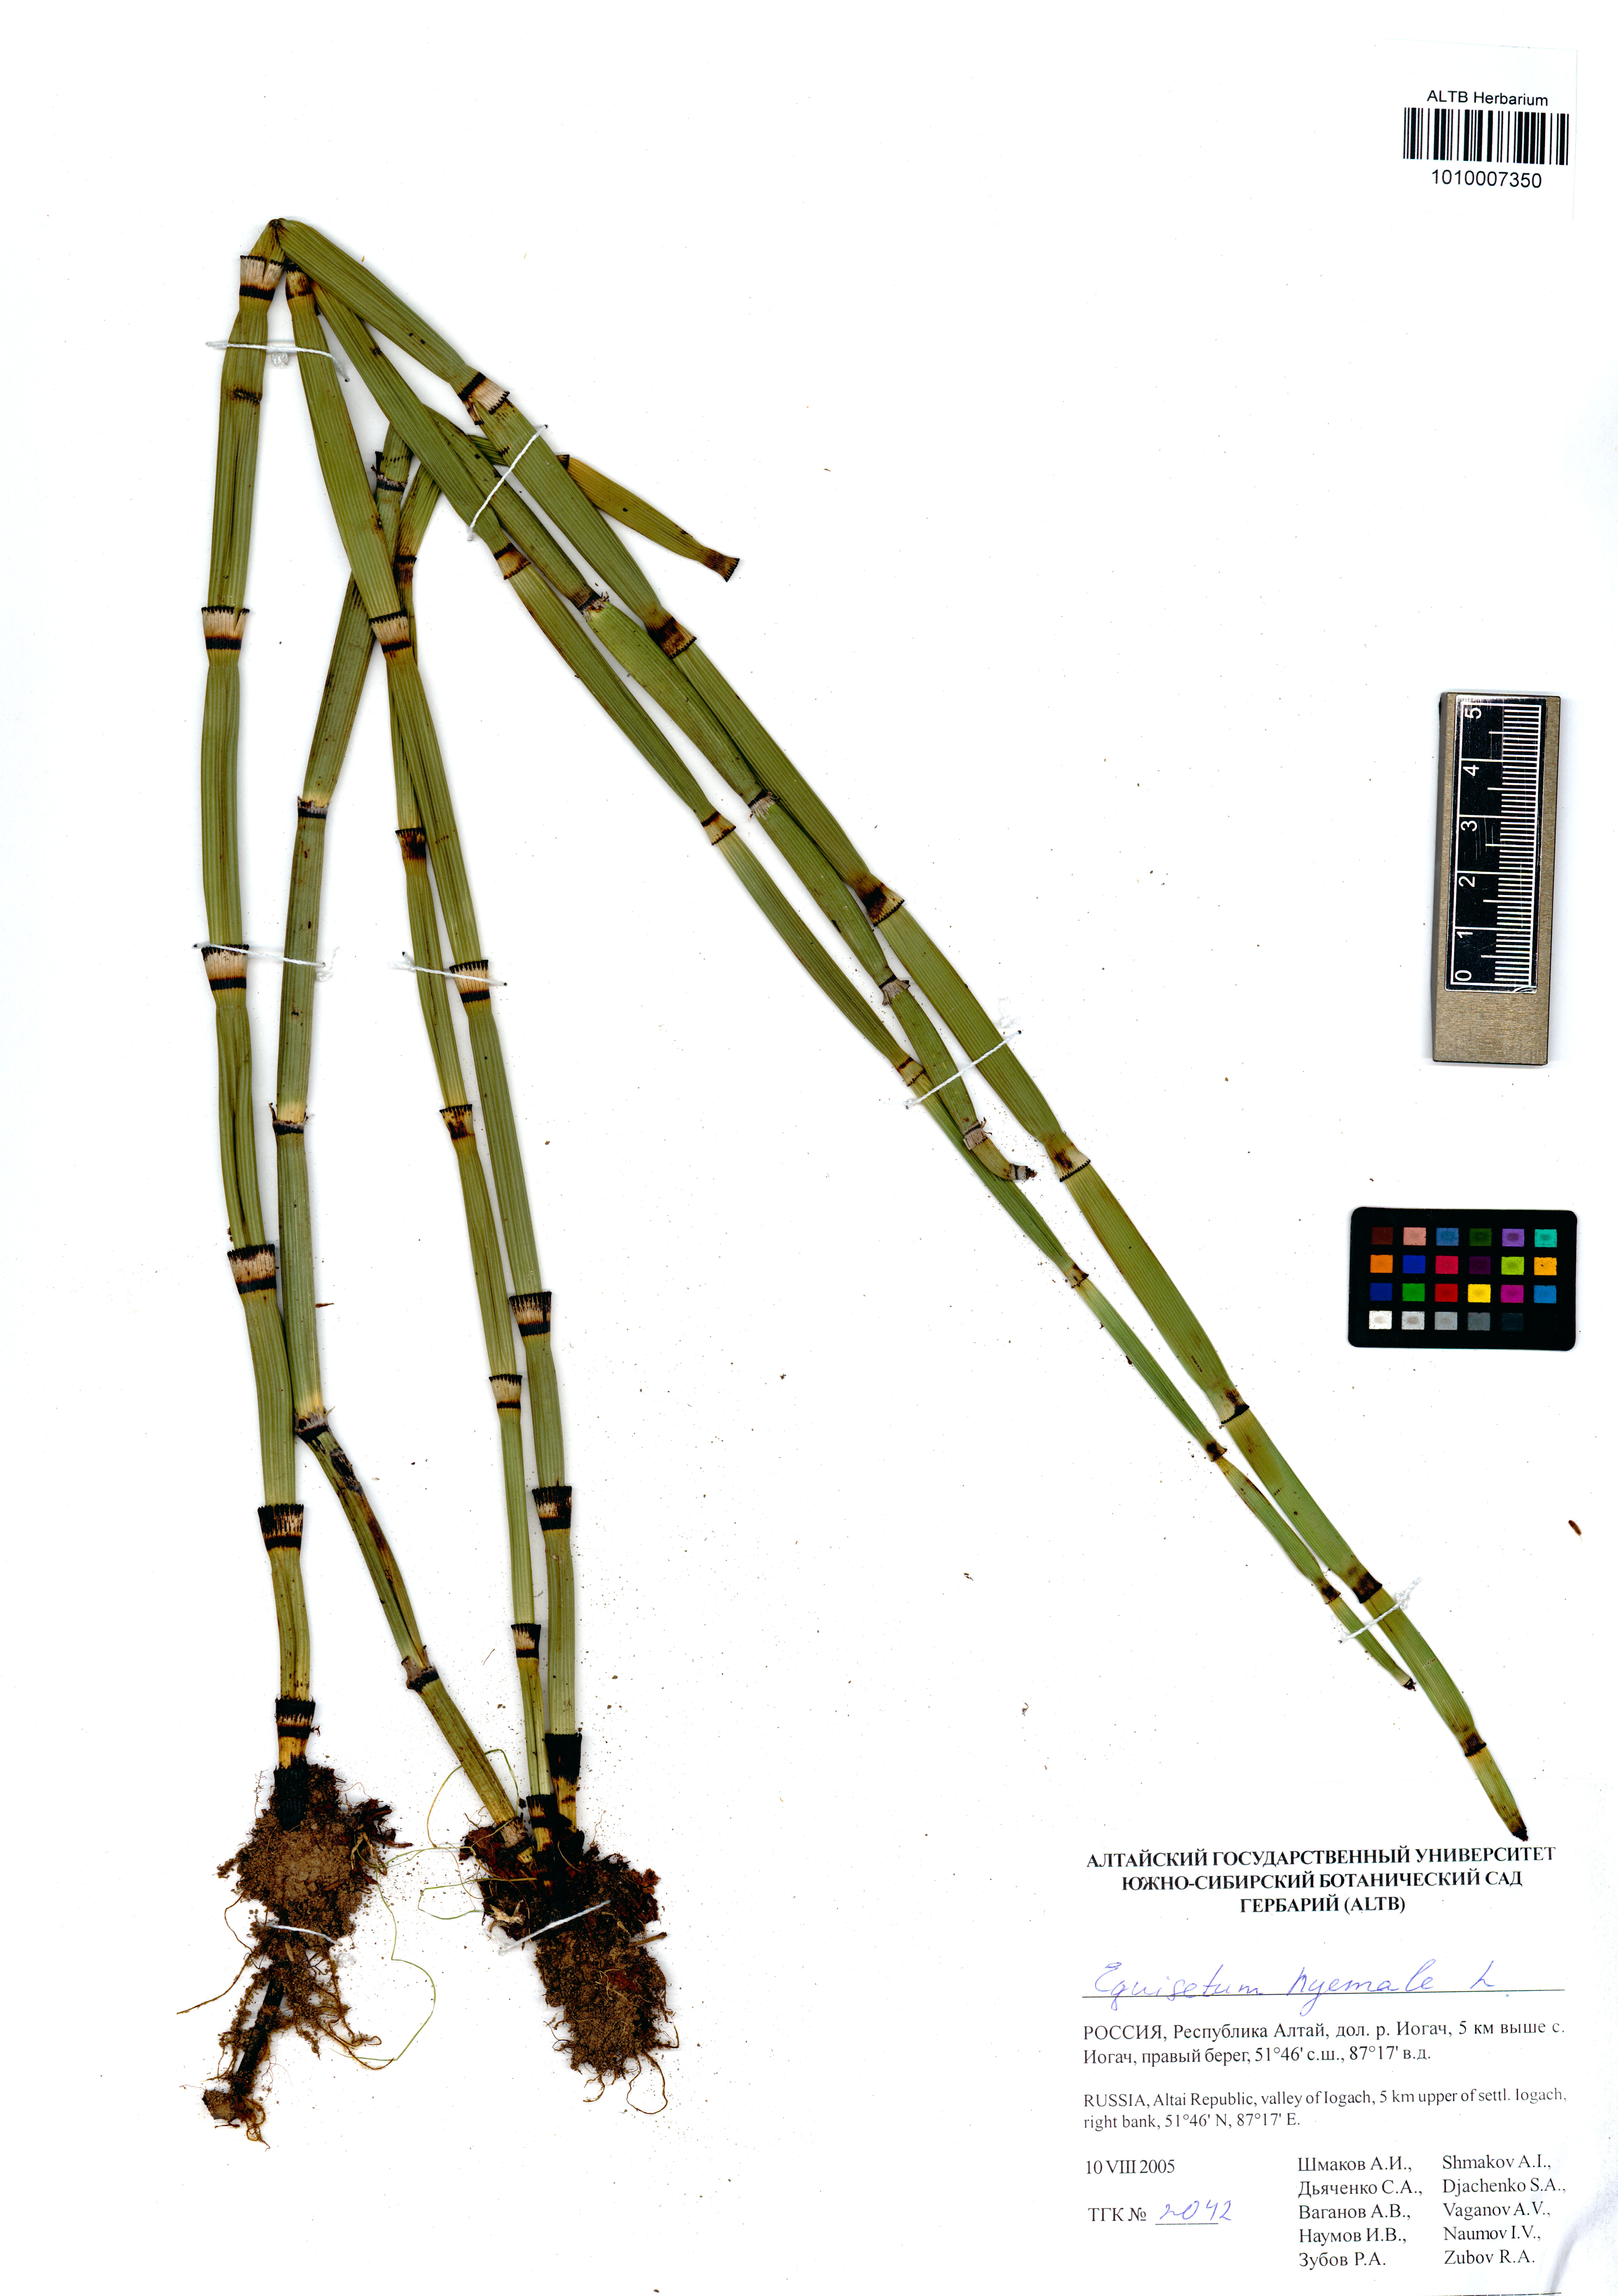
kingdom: Plantae
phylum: Tracheophyta
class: Polypodiopsida
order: Equisetales
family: Equisetaceae
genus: Equisetum
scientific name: Equisetum hyemale
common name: Rough horsetail
